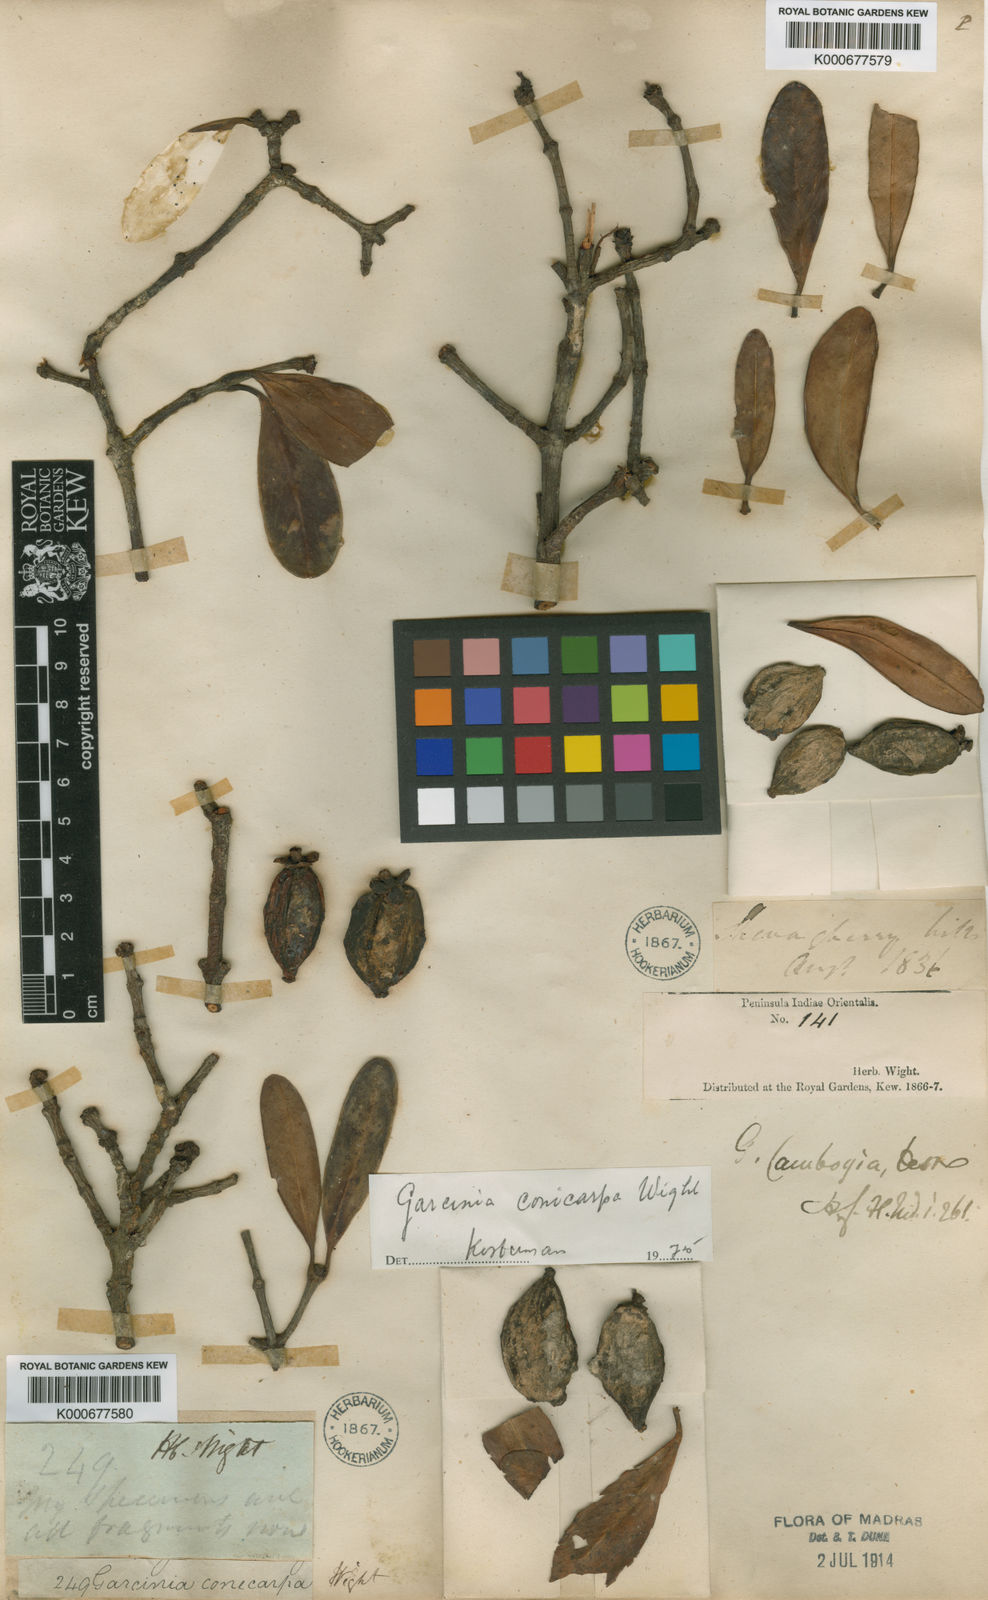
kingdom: Plantae
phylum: Tracheophyta
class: Magnoliopsida
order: Malpighiales
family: Clusiaceae
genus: Garcinia
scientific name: Garcinia gummi-gutta
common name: Malabar tamarind
